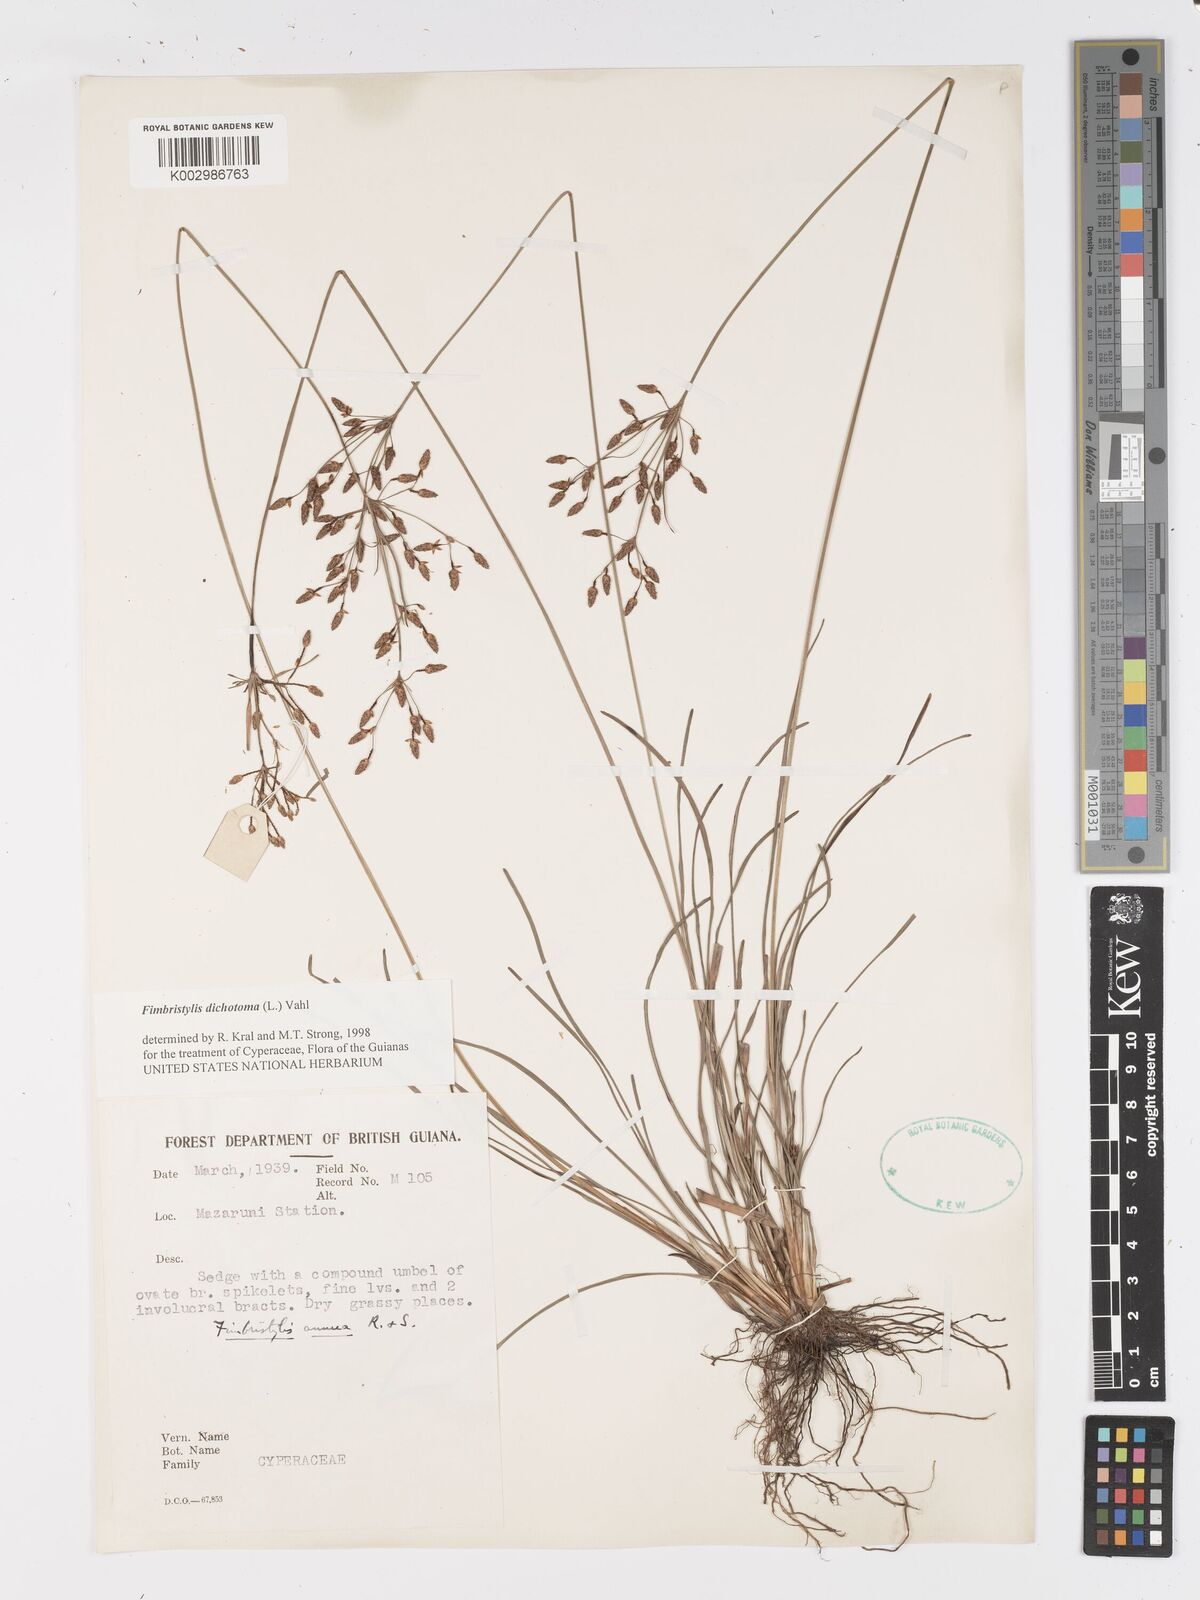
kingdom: Plantae
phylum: Tracheophyta
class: Liliopsida
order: Poales
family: Cyperaceae
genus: Fimbristylis
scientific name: Fimbristylis dichotoma
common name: Forked fimbry
